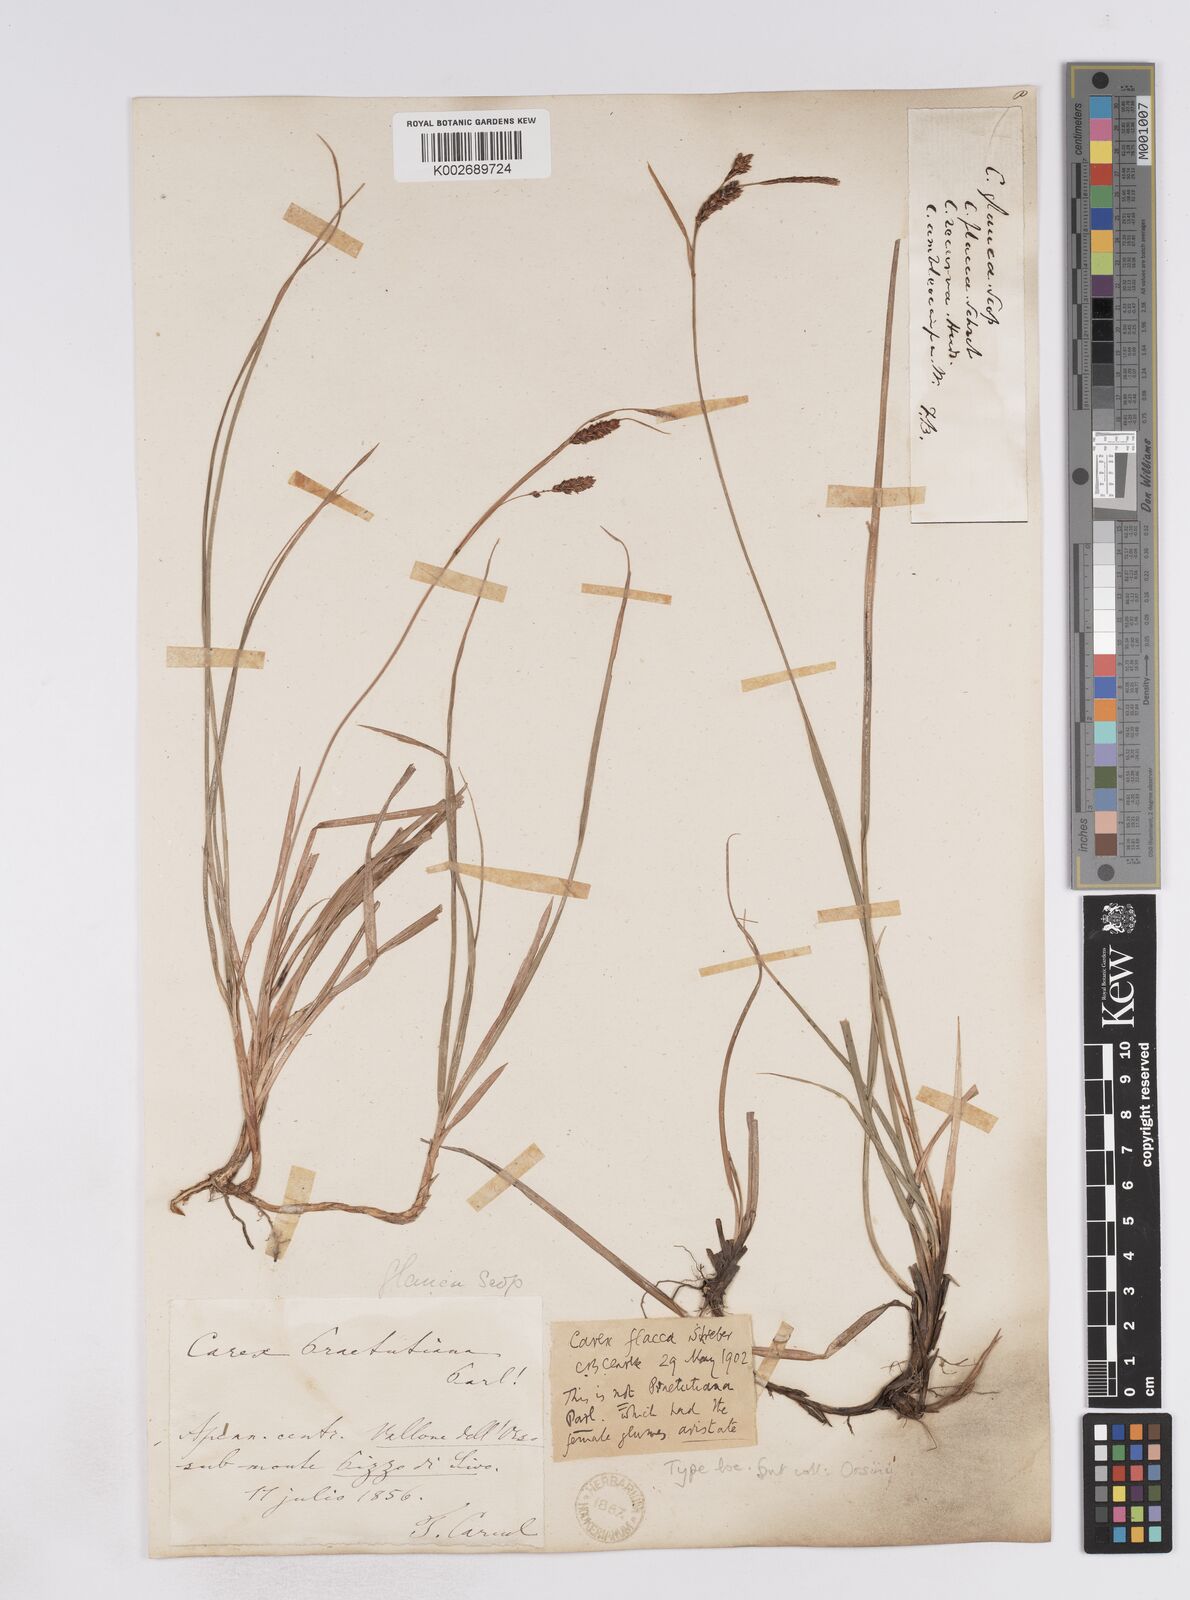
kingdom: Plantae
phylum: Tracheophyta
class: Liliopsida
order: Poales
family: Cyperaceae
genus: Carex
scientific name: Carex flacca
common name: Glaucous sedge
